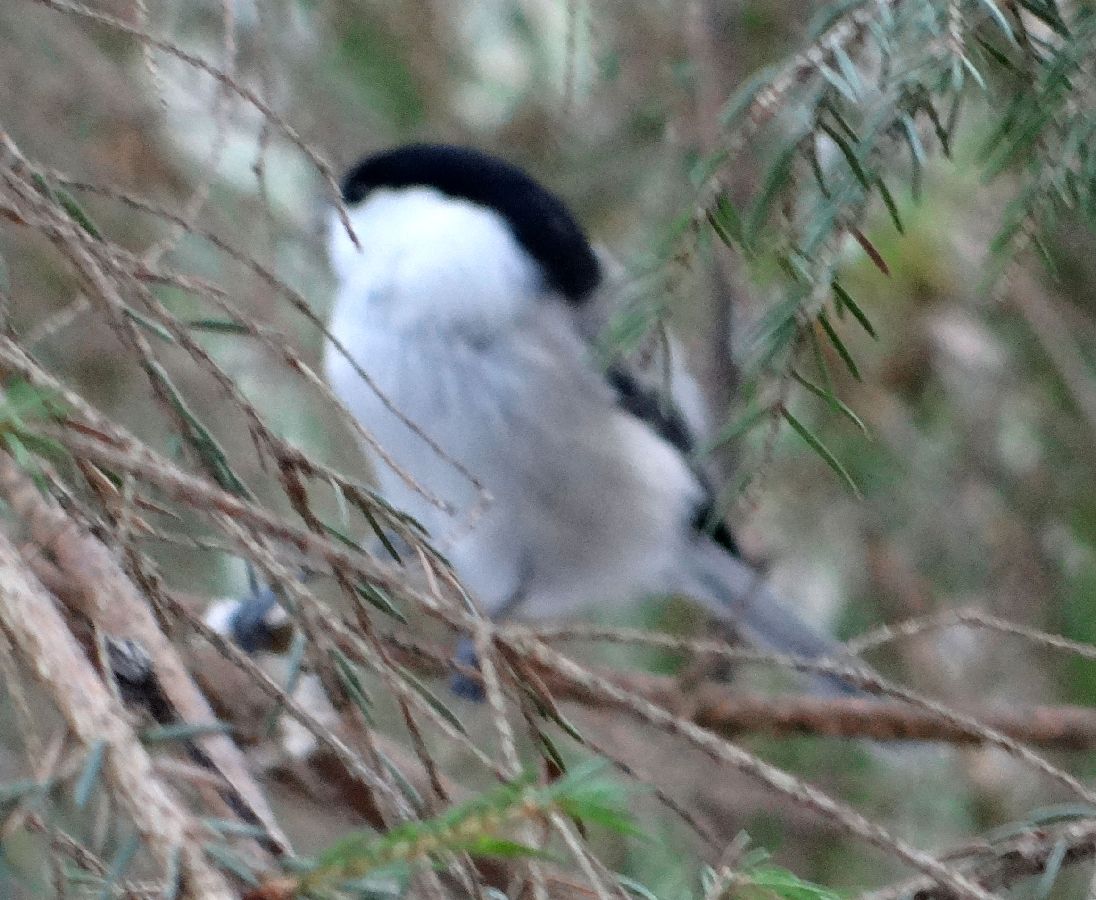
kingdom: Animalia
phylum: Chordata
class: Aves
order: Passeriformes
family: Paridae
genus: Poecile
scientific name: Poecile montanus
